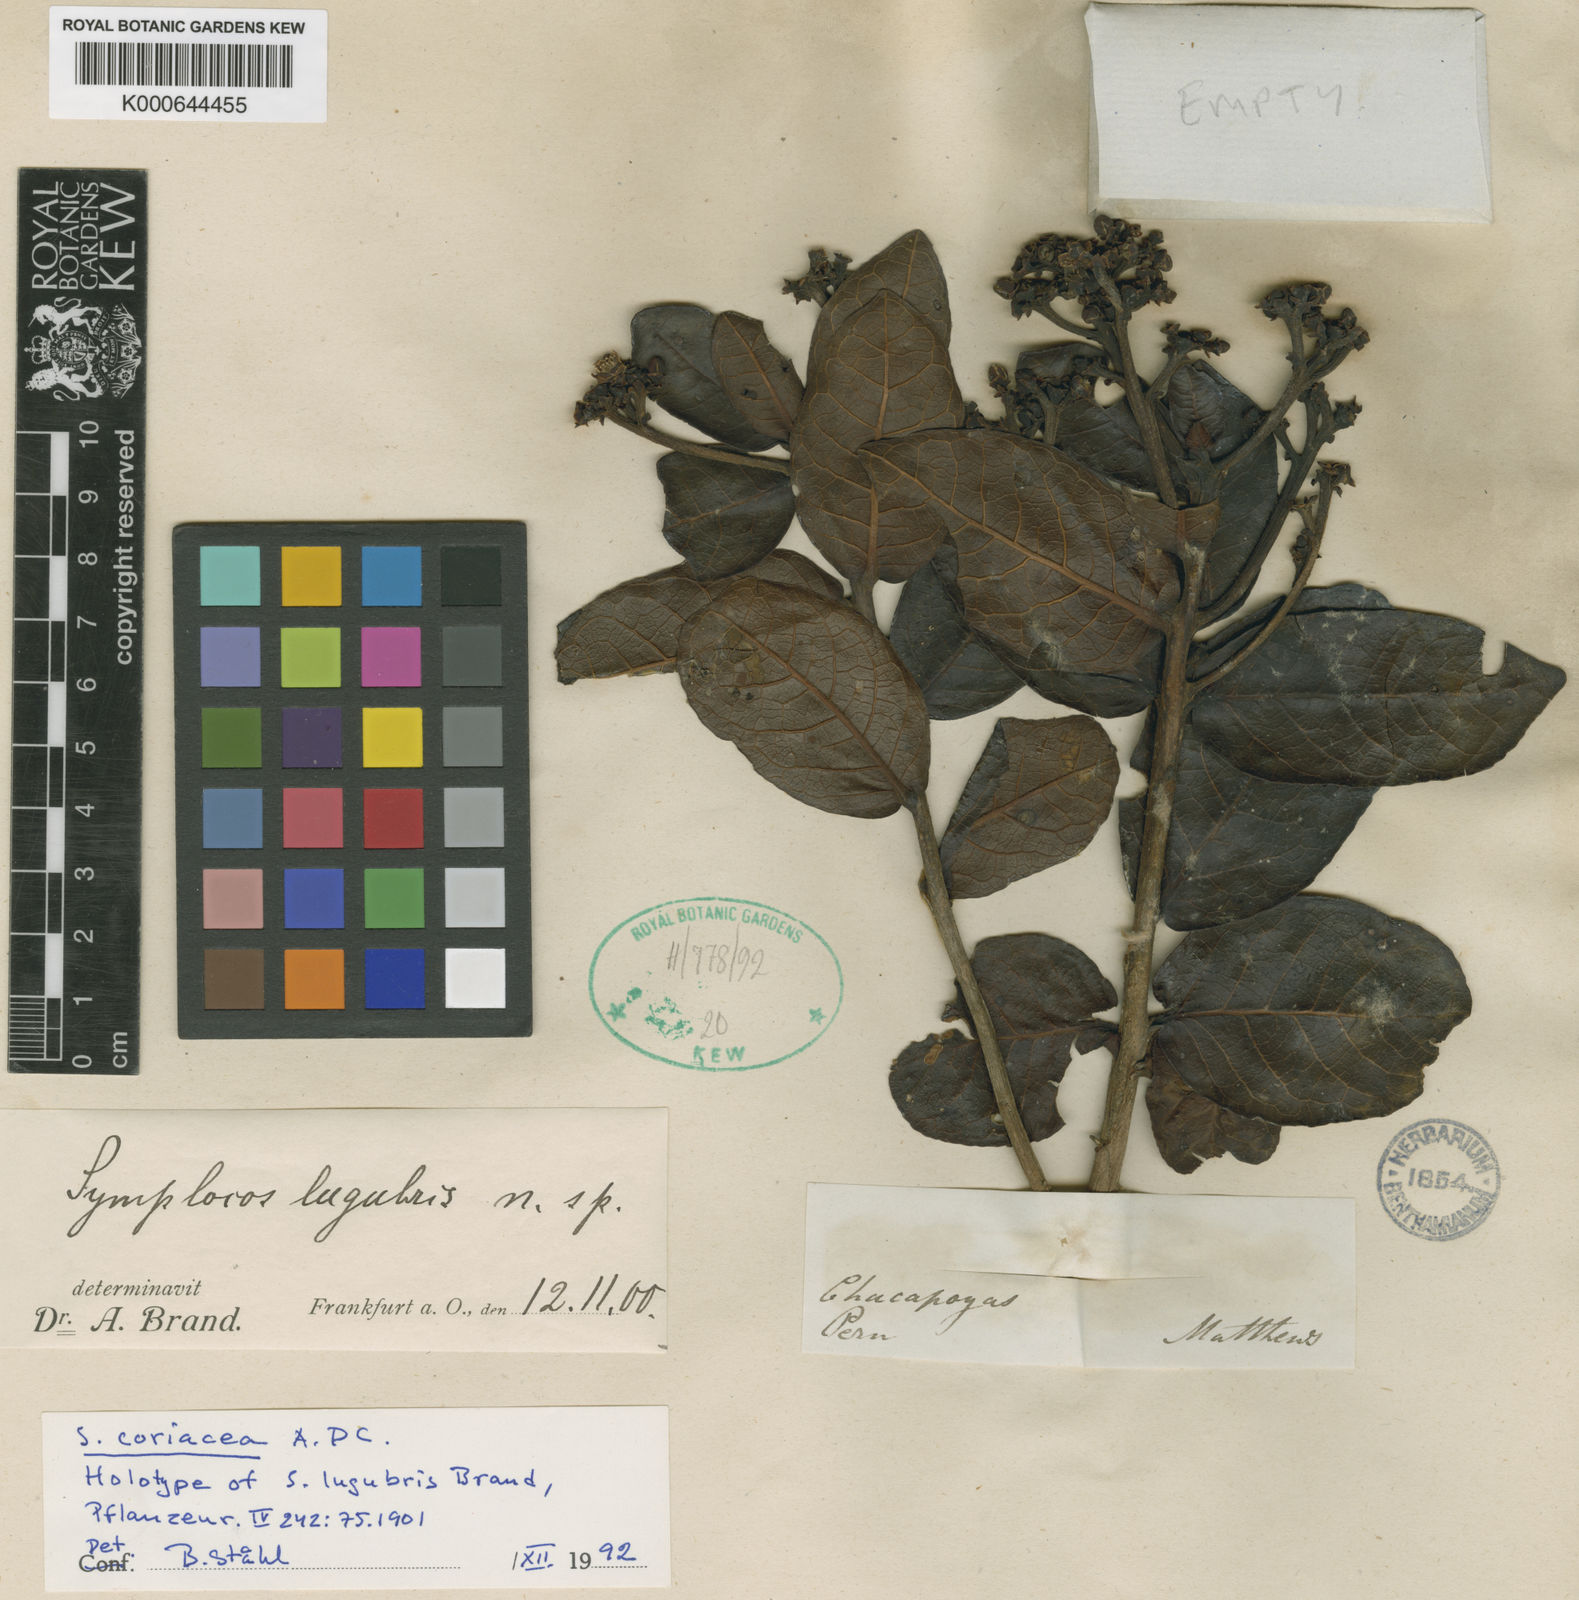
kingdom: Plantae
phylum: Tracheophyta
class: Magnoliopsida
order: Ericales
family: Symplocaceae
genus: Symplocos
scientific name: Symplocos coriacea
